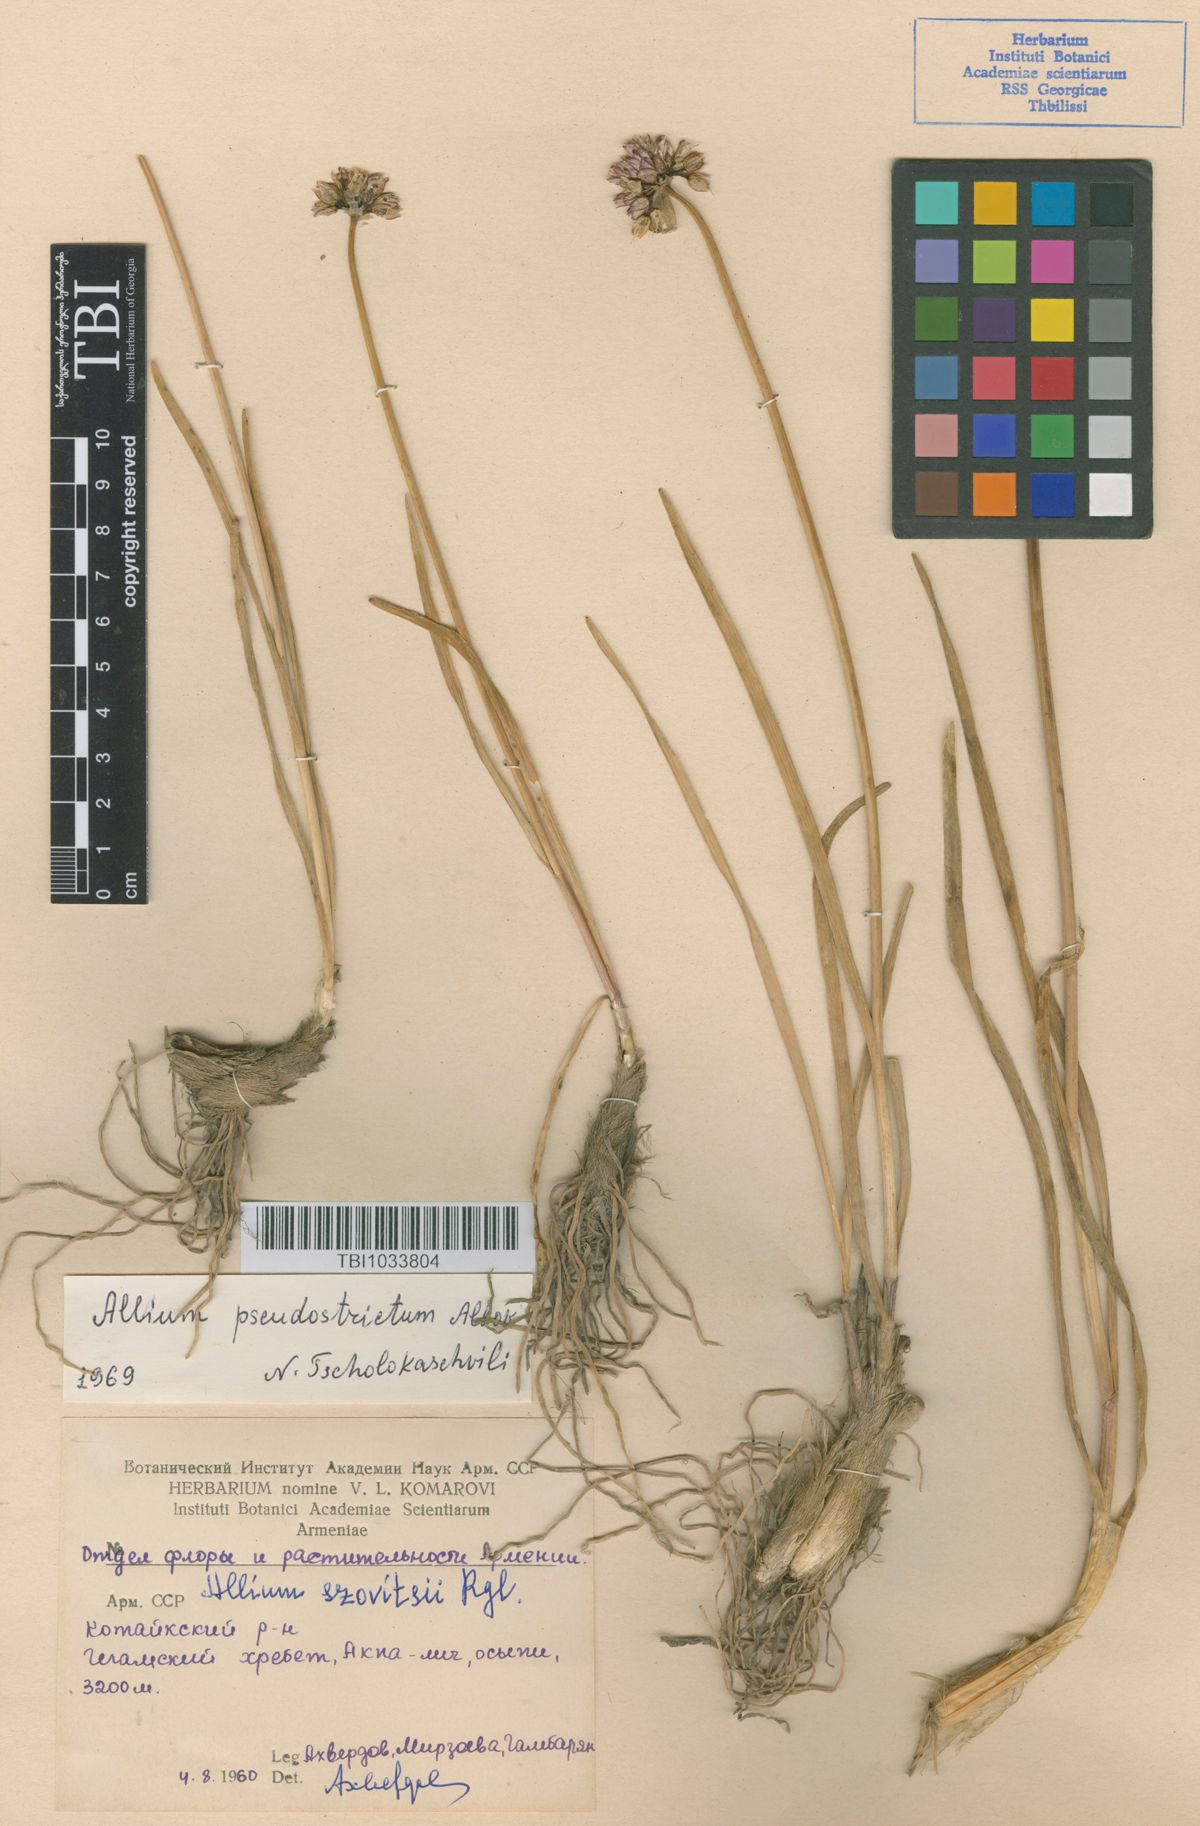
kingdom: Plantae
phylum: Tracheophyta
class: Liliopsida
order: Asparagales
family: Amaryllidaceae
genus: Allium
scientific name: Allium pseudostrictum
